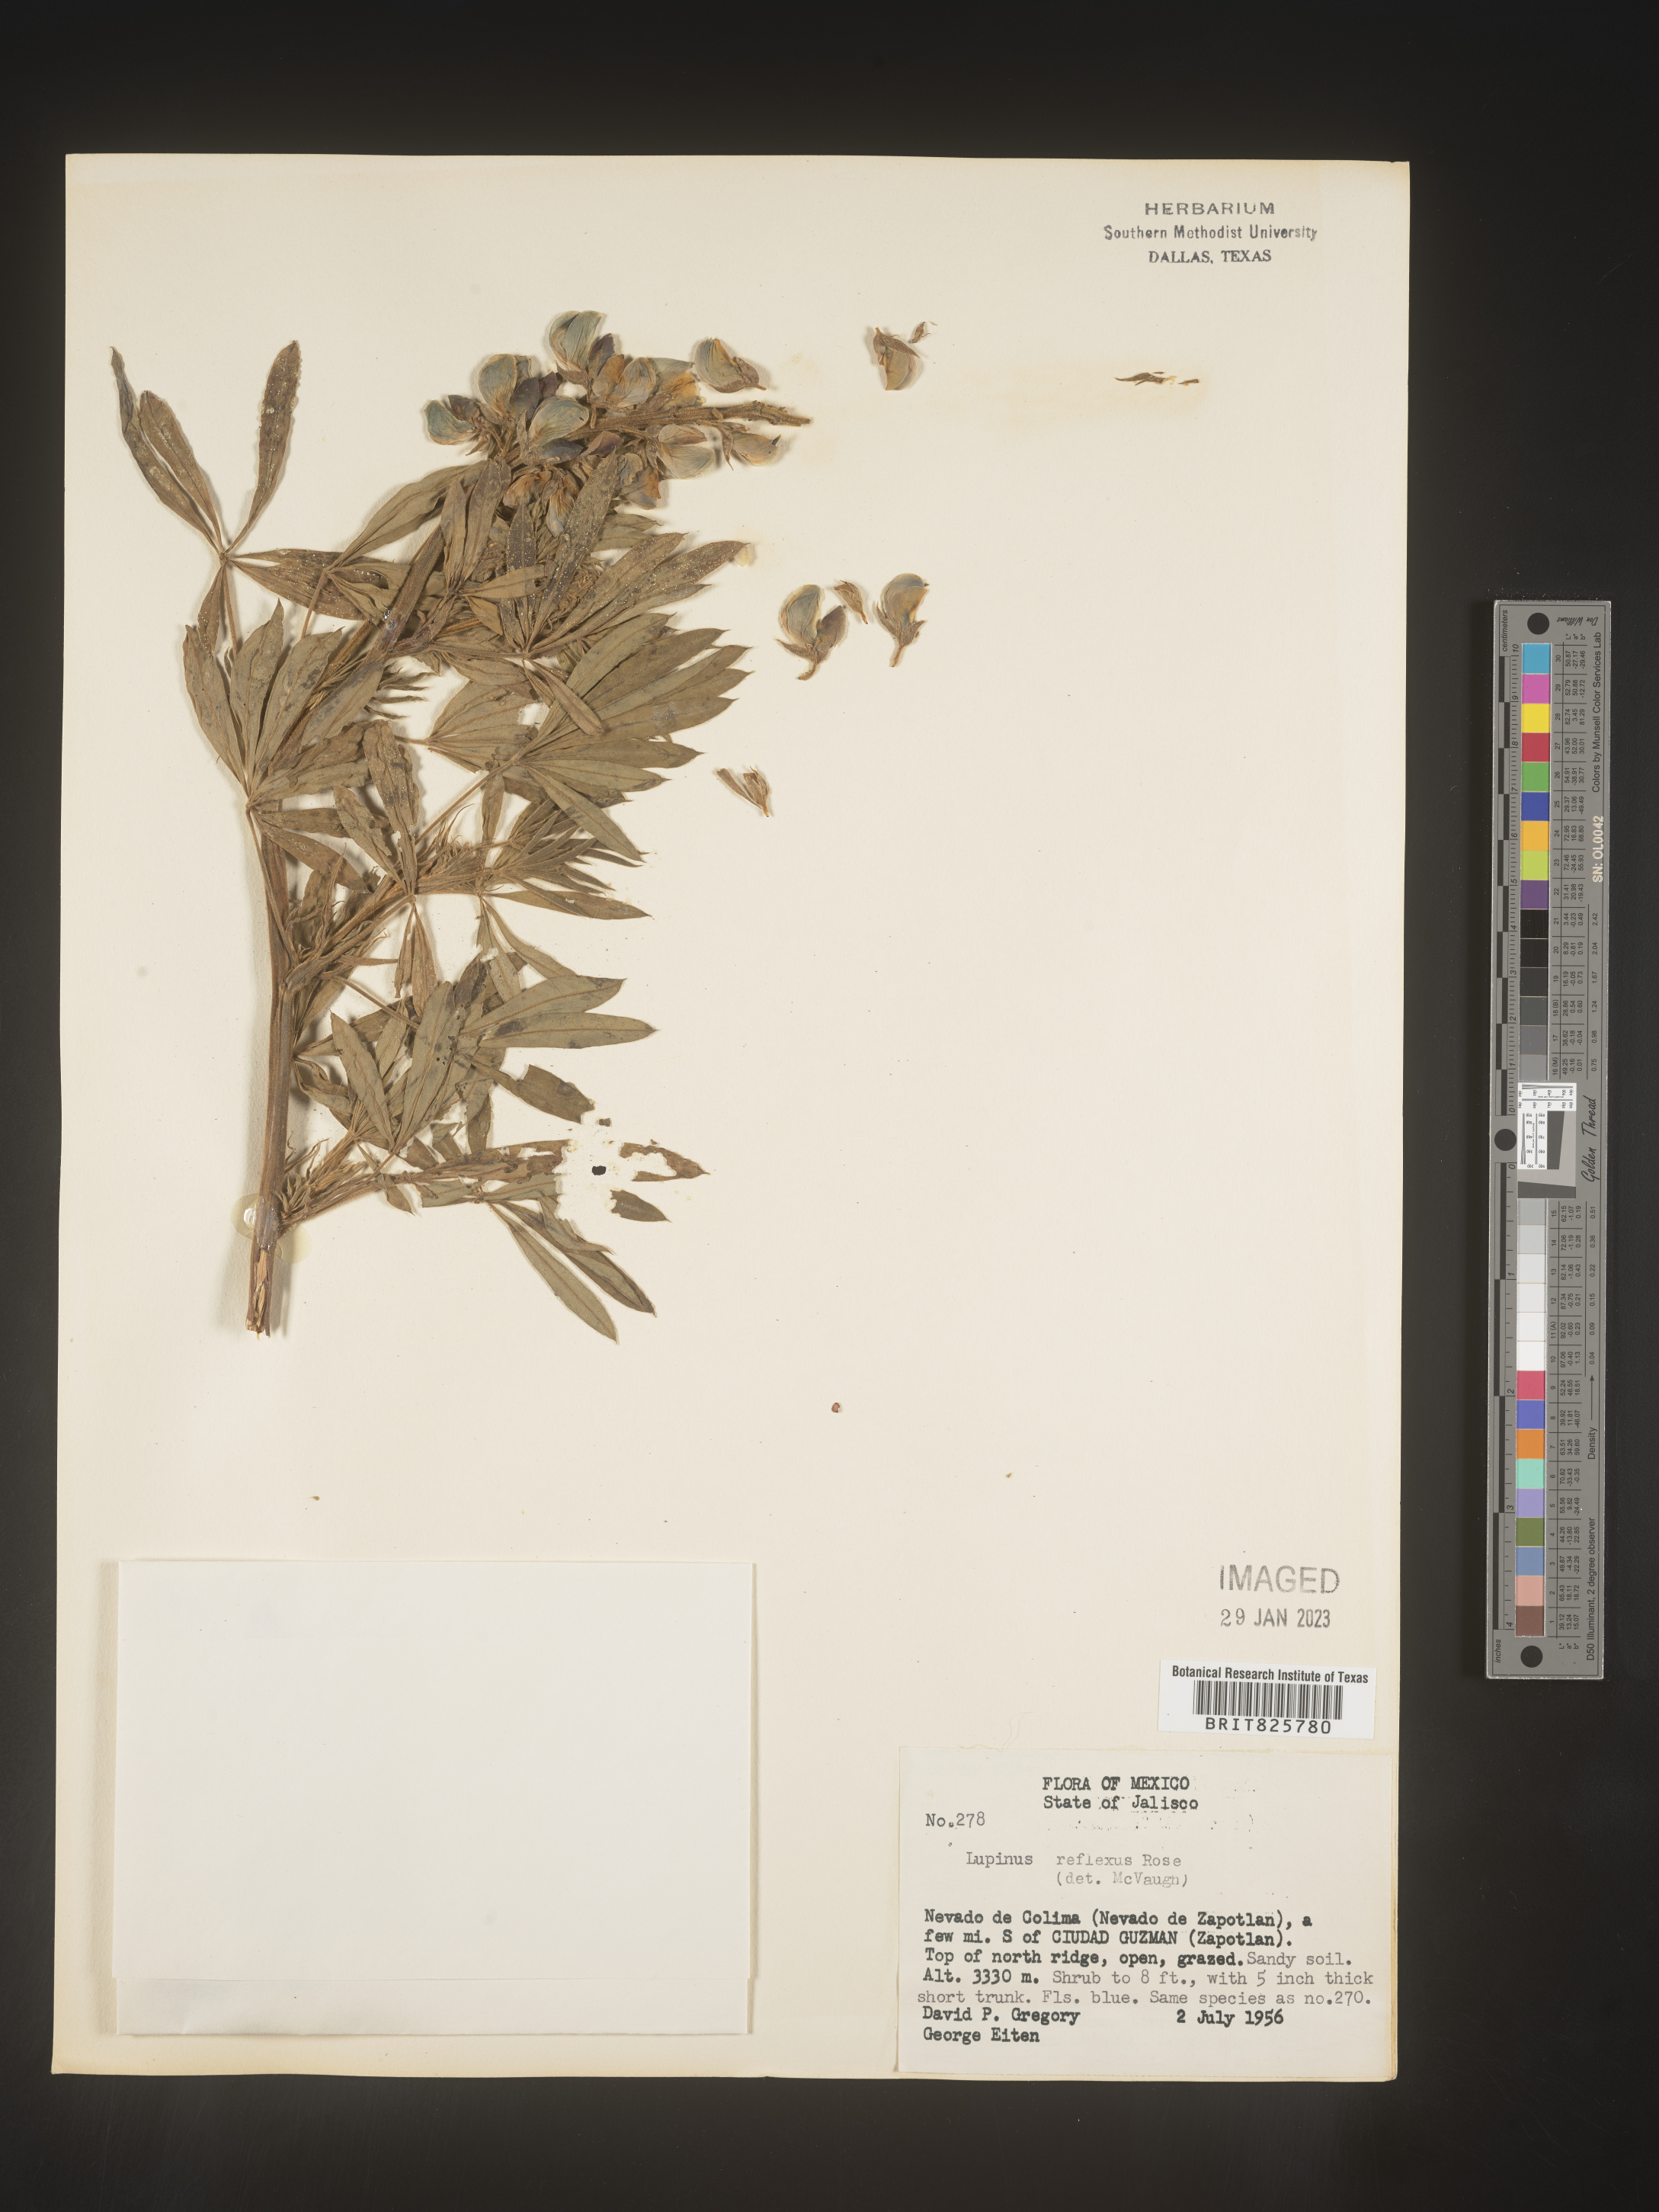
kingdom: Plantae
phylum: Tracheophyta
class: Magnoliopsida
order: Fabales
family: Fabaceae
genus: Lupinus
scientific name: Lupinus
